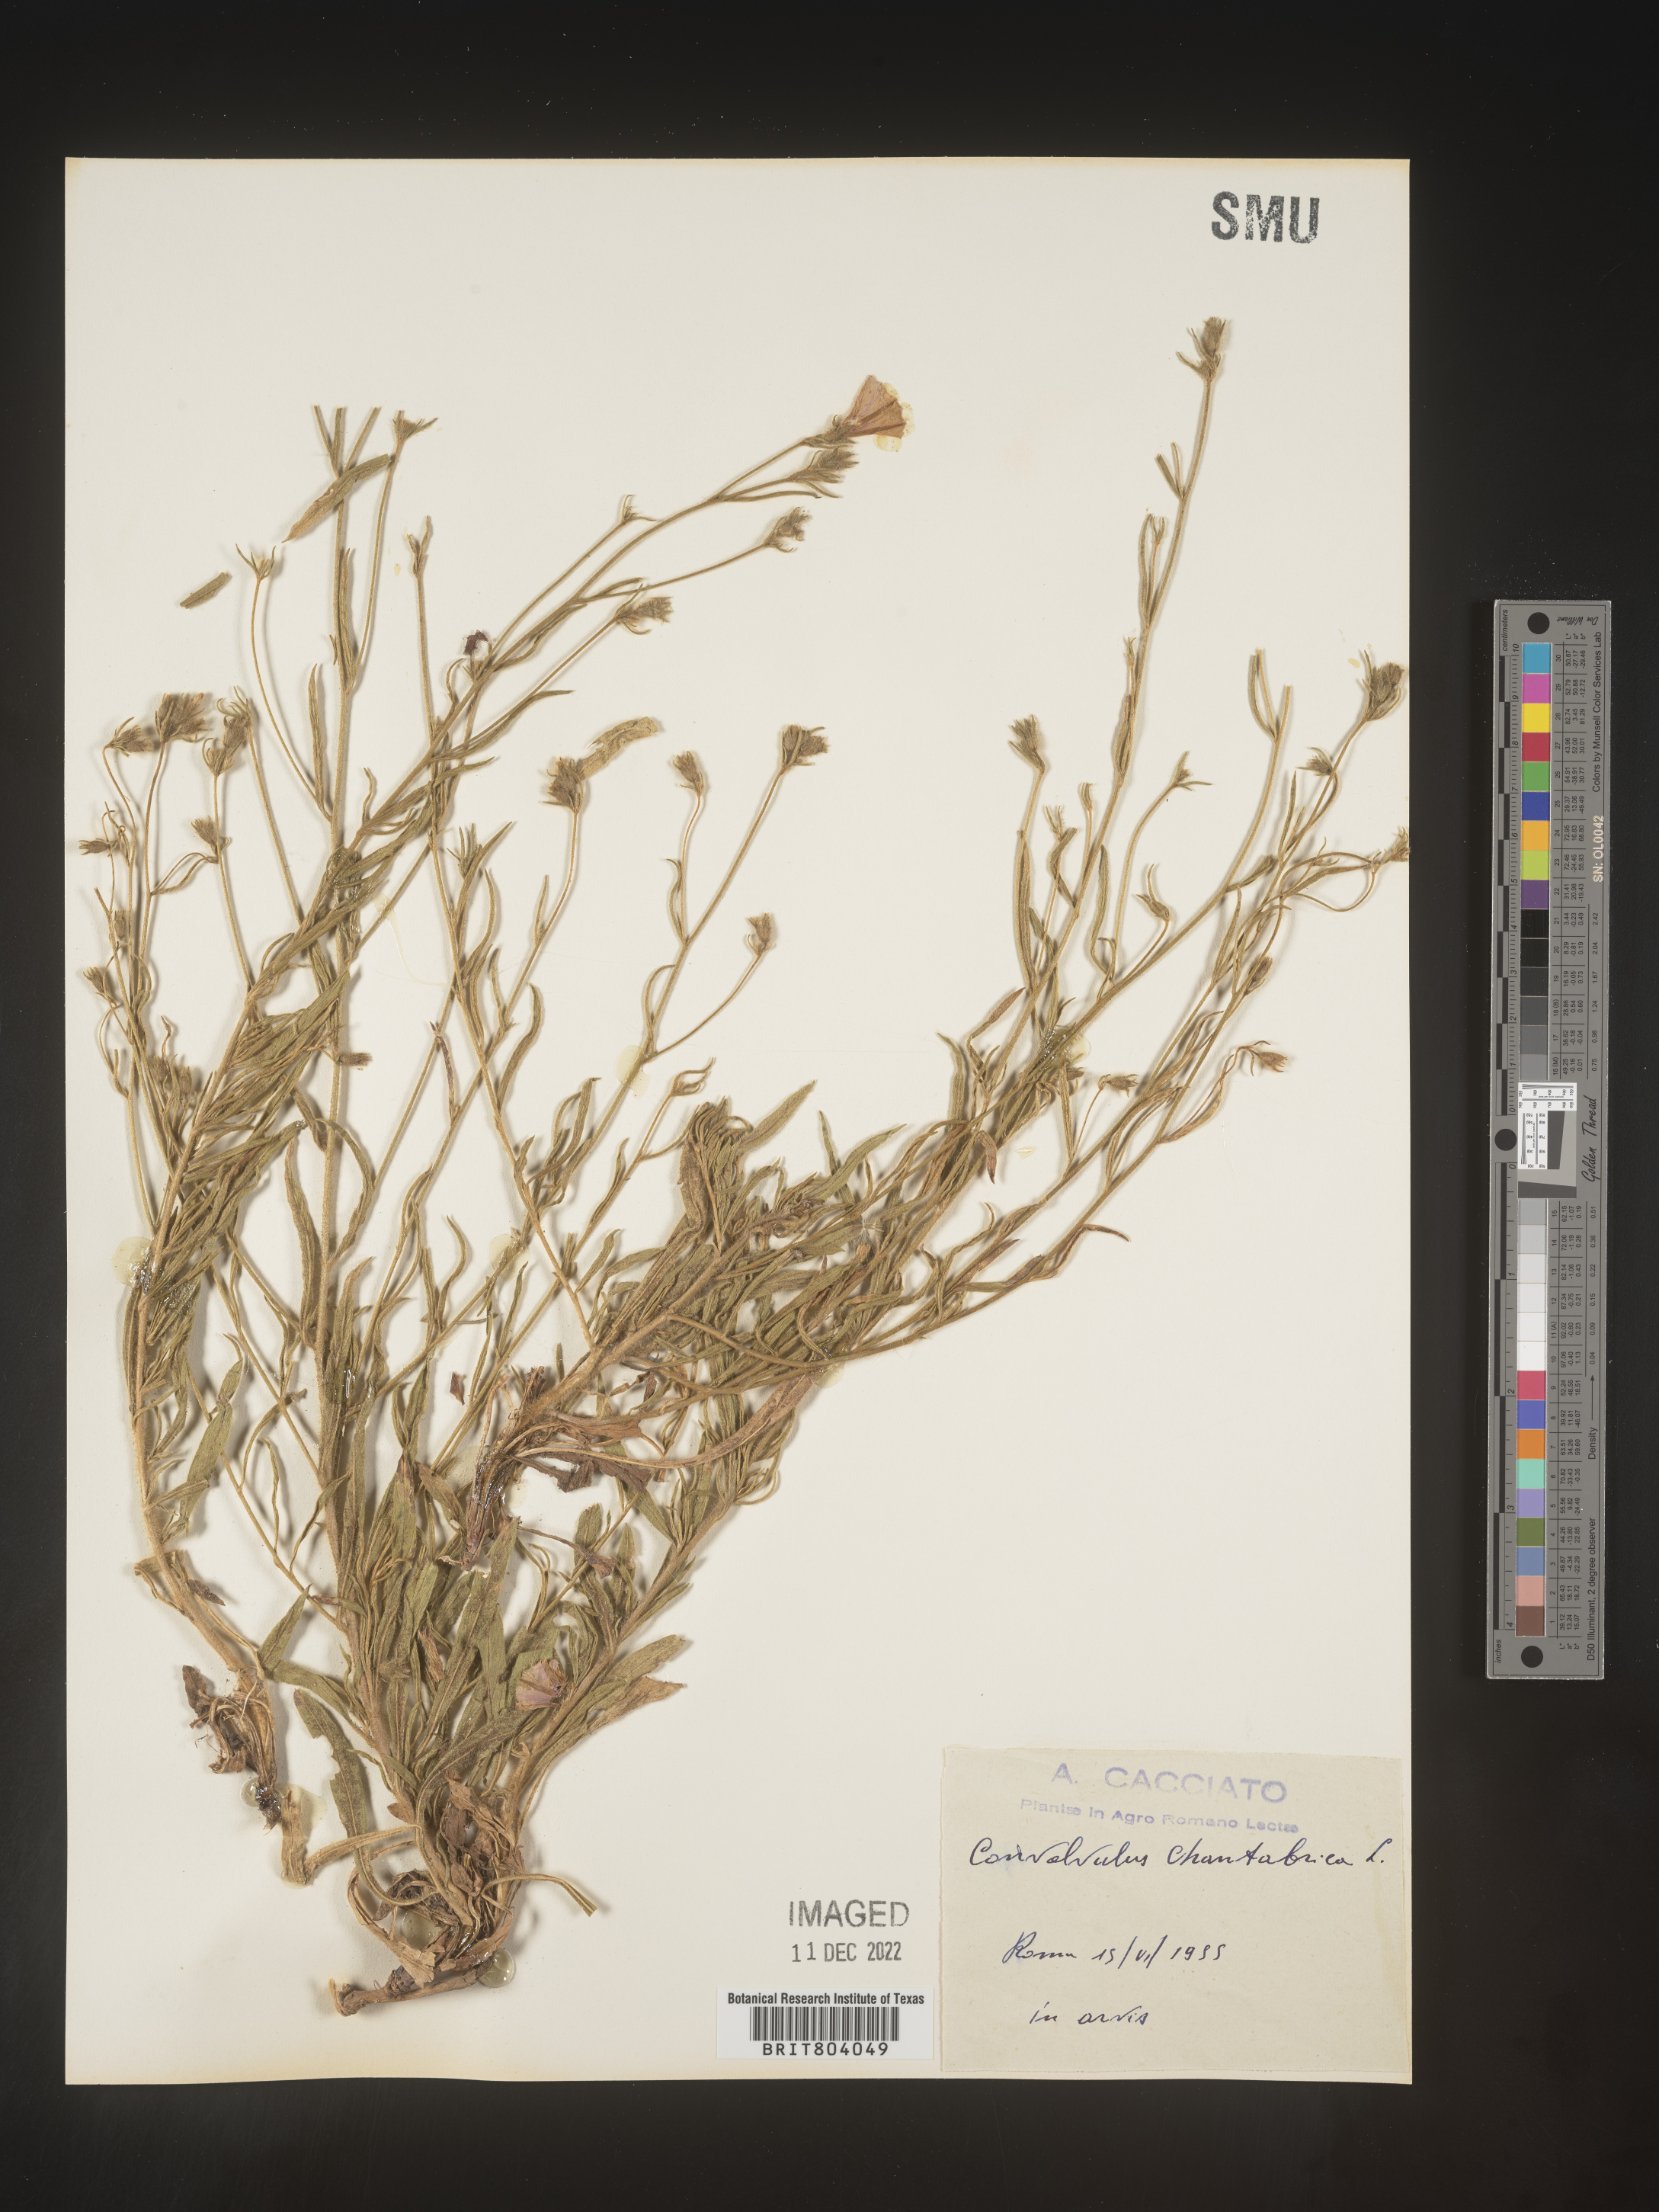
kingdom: Plantae
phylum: Tracheophyta
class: Magnoliopsida
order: Solanales
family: Convolvulaceae
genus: Convolvulus
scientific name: Convolvulus
